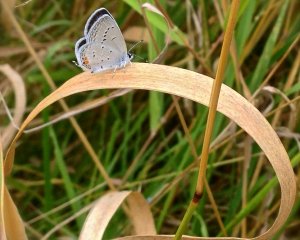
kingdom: Animalia
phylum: Arthropoda
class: Insecta
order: Lepidoptera
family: Lycaenidae
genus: Elkalyce
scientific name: Elkalyce comyntas
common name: Eastern Tailed-Blue
